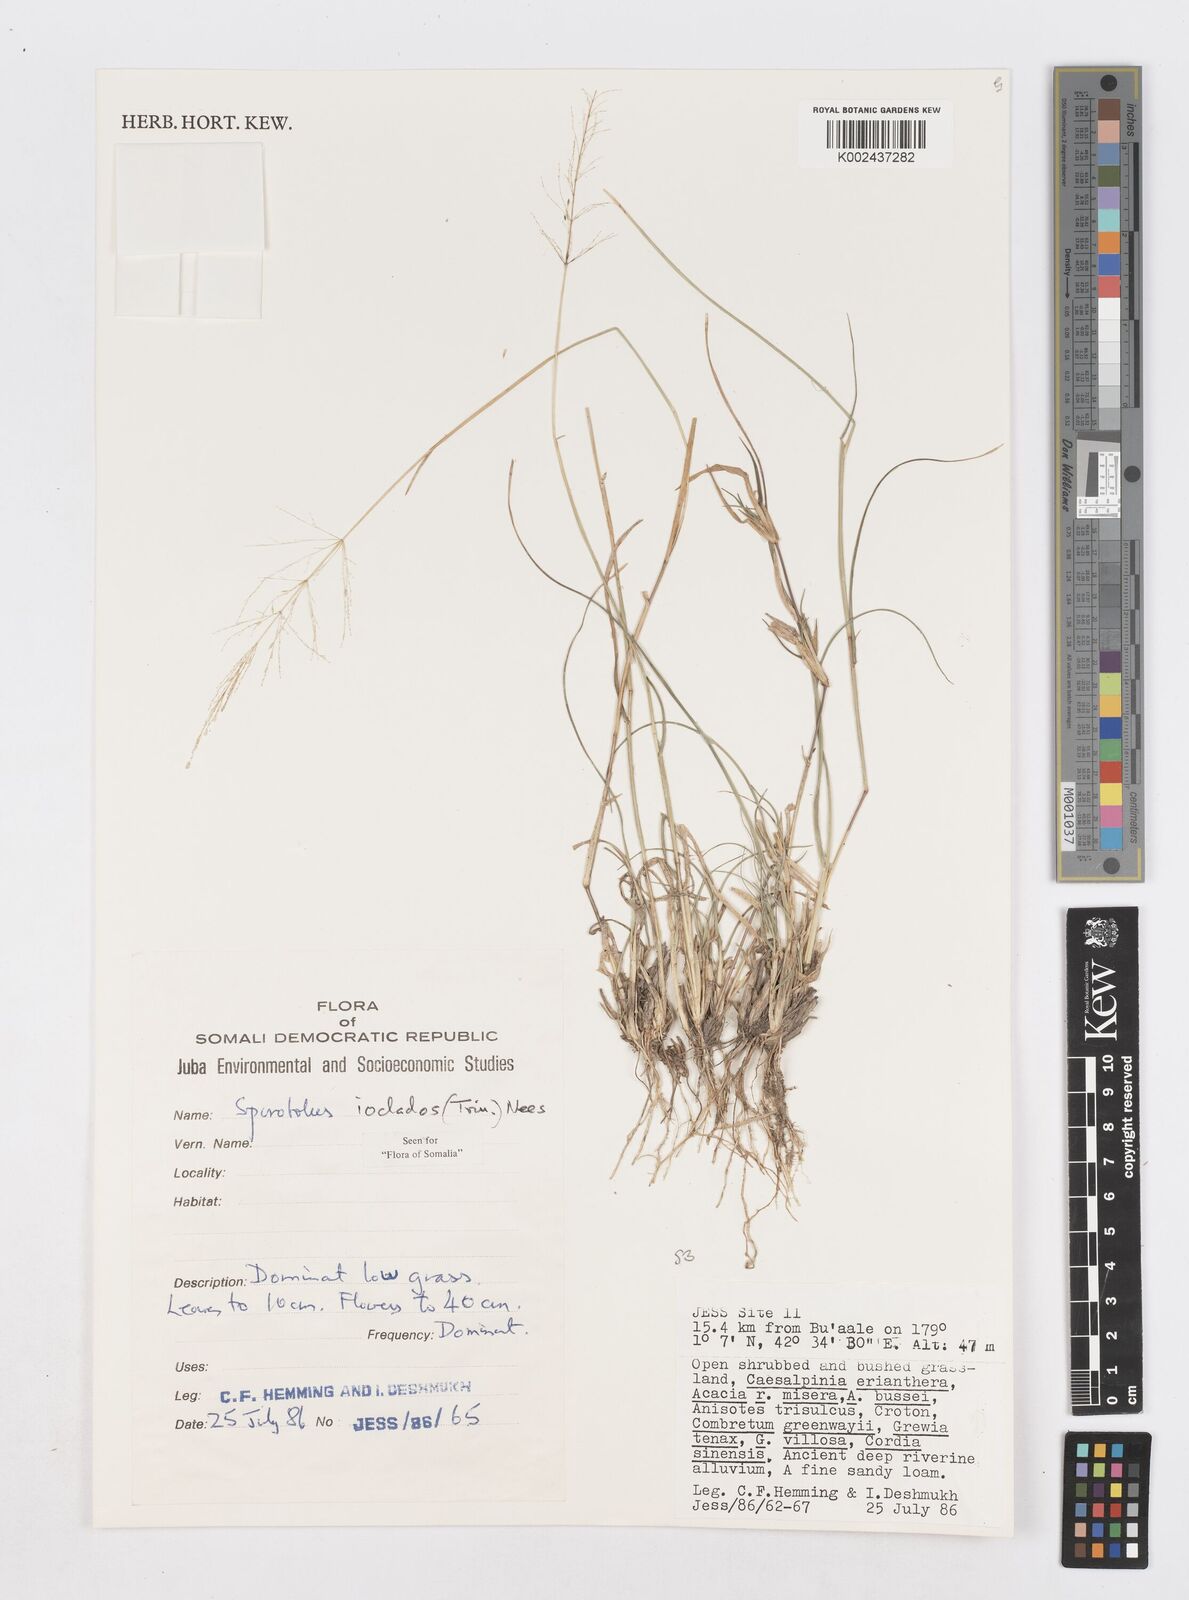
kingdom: Plantae
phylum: Tracheophyta
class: Liliopsida
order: Poales
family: Poaceae
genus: Sporobolus
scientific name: Sporobolus ioclados
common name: Pan dropseed
